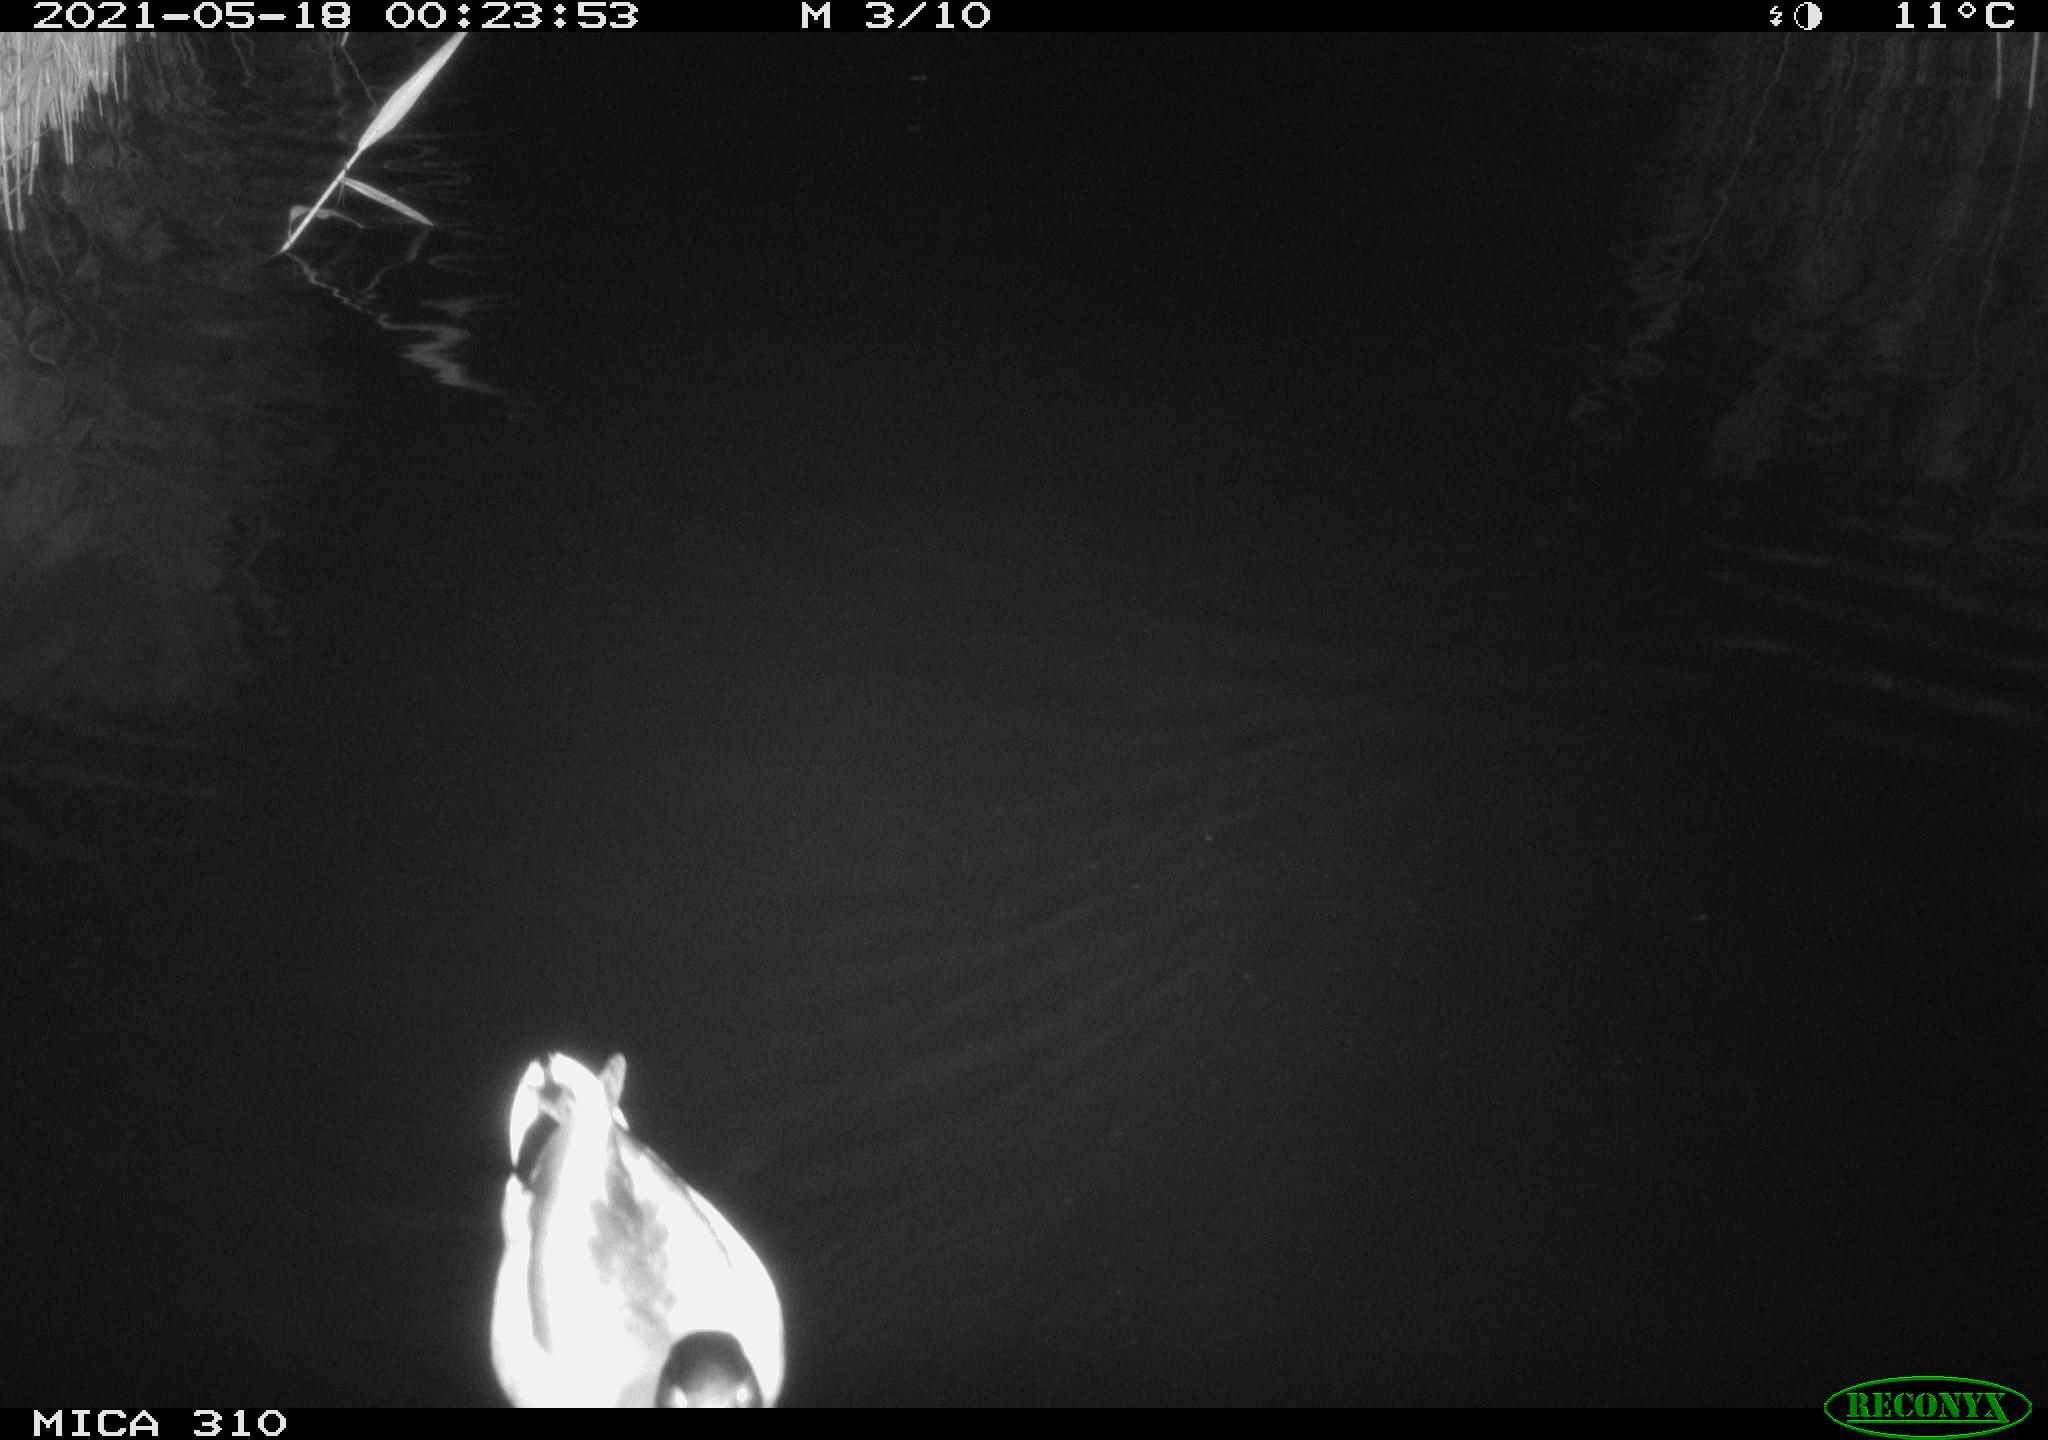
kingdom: Animalia
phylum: Chordata
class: Aves
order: Anseriformes
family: Anatidae
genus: Anas
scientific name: Anas platyrhynchos
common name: Mallard
